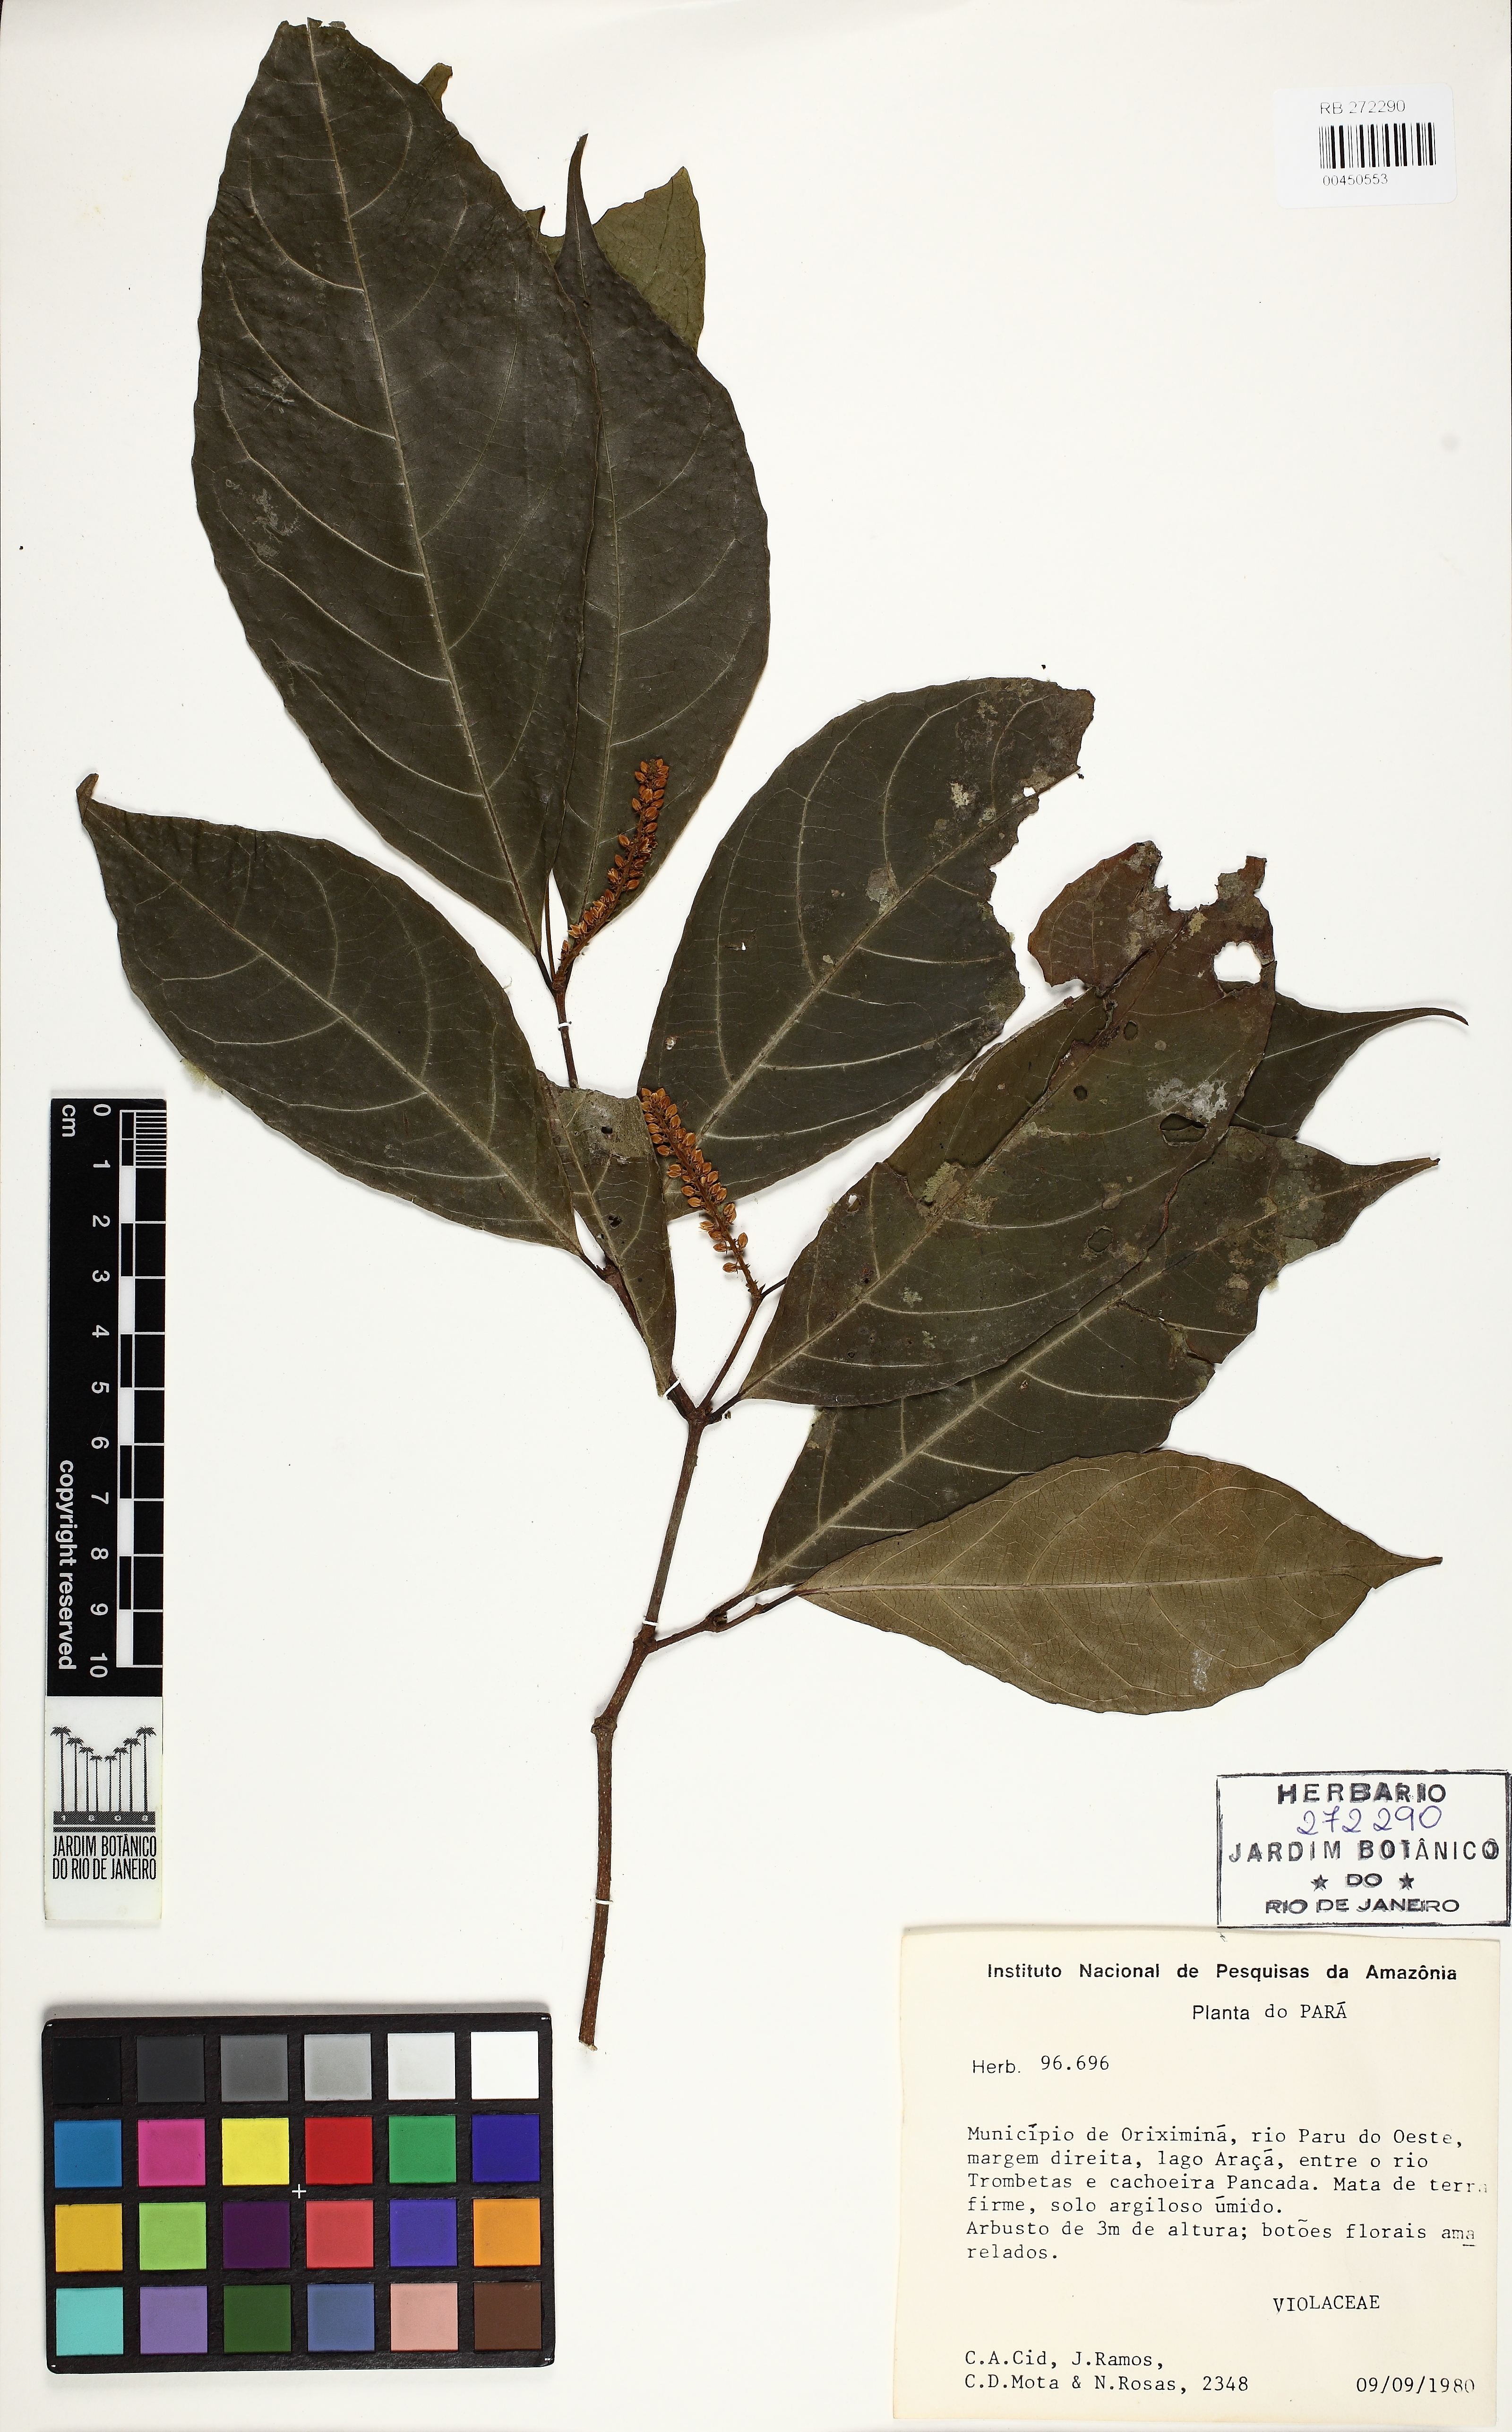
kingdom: Plantae
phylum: Tracheophyta
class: Magnoliopsida
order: Malpighiales
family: Violaceae
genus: Rinorea
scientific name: Rinorea macrocarpa
